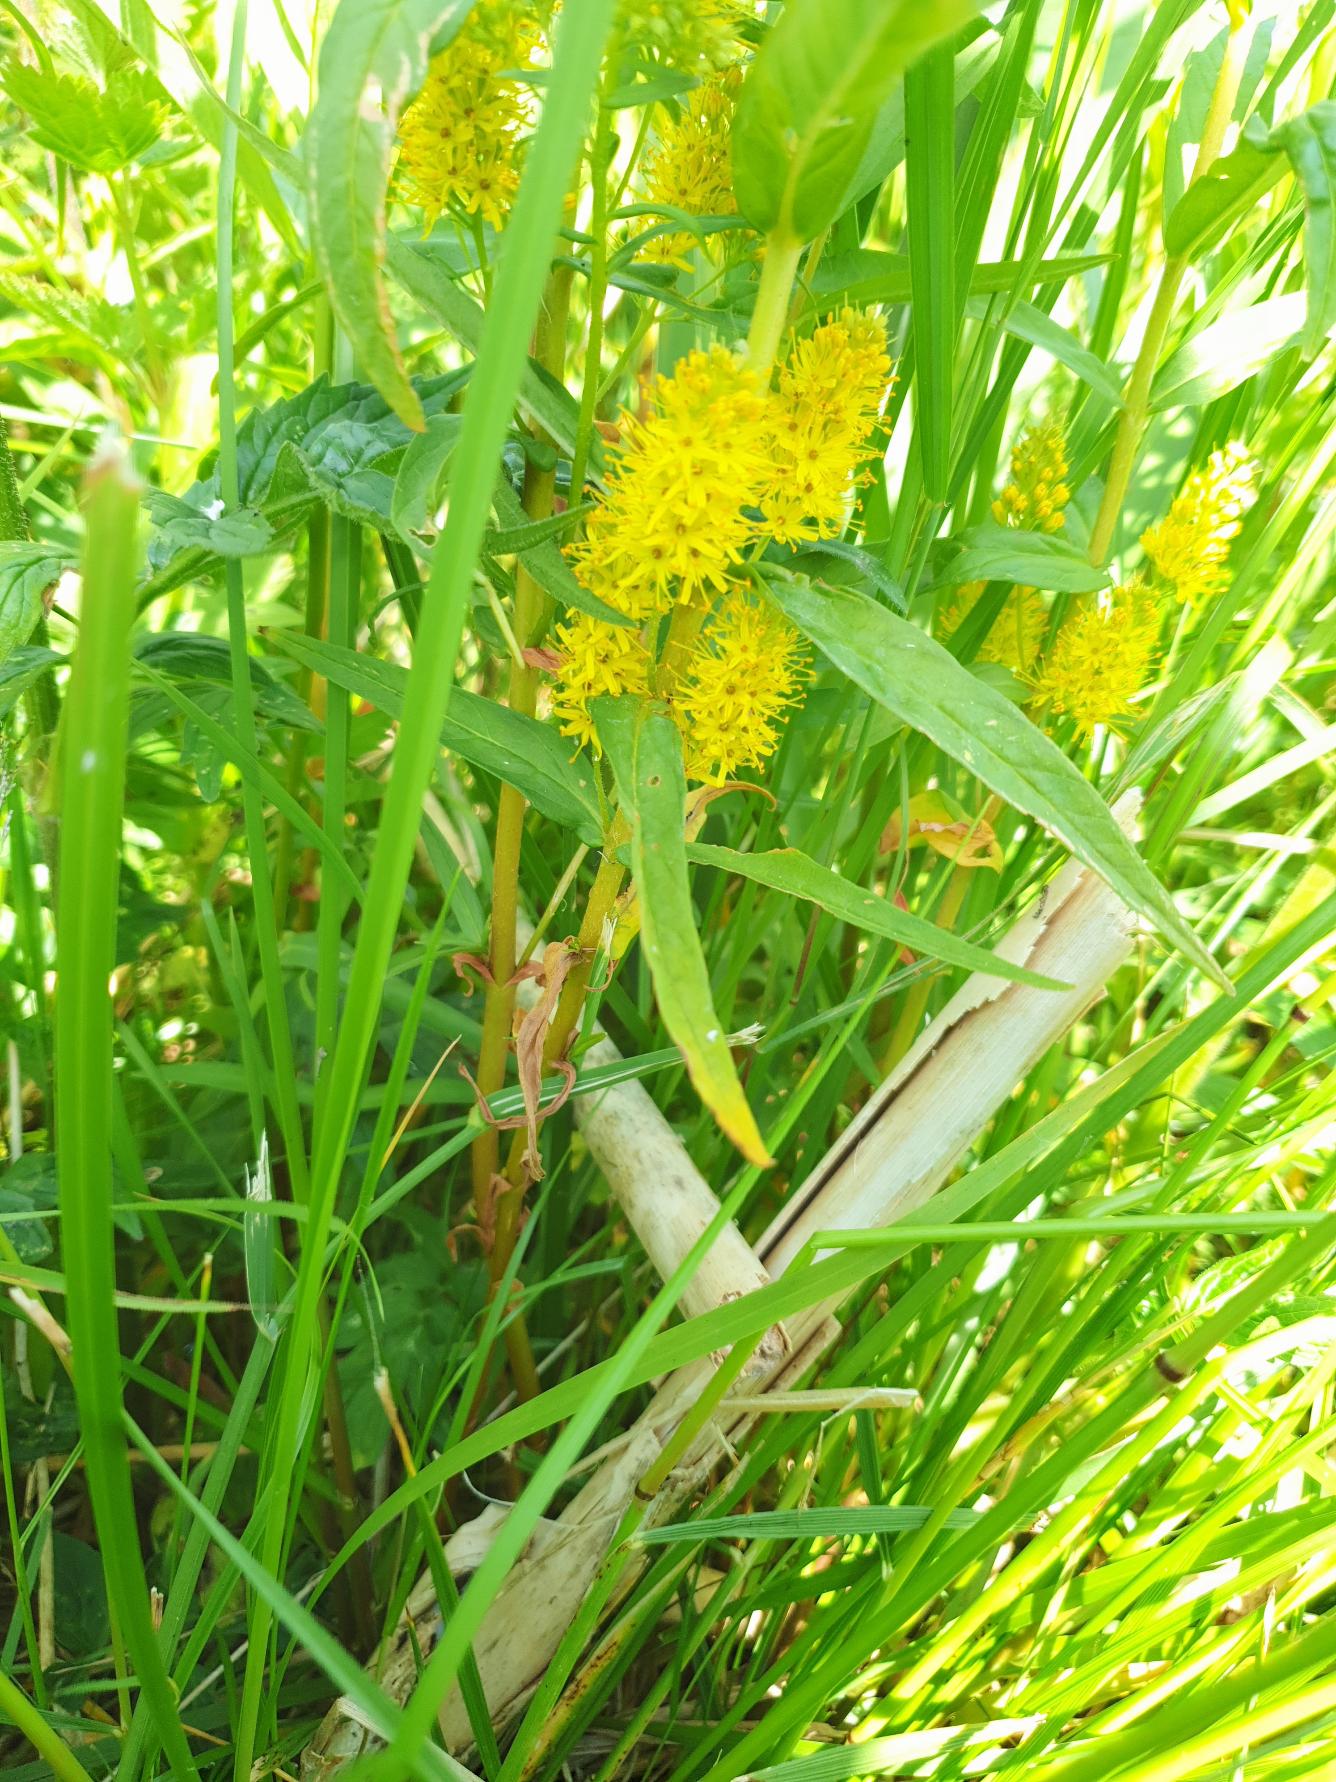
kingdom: Plantae
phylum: Tracheophyta
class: Magnoliopsida
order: Ericales
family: Primulaceae
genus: Lysimachia
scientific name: Lysimachia thyrsiflora
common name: Dusk-fredløs
